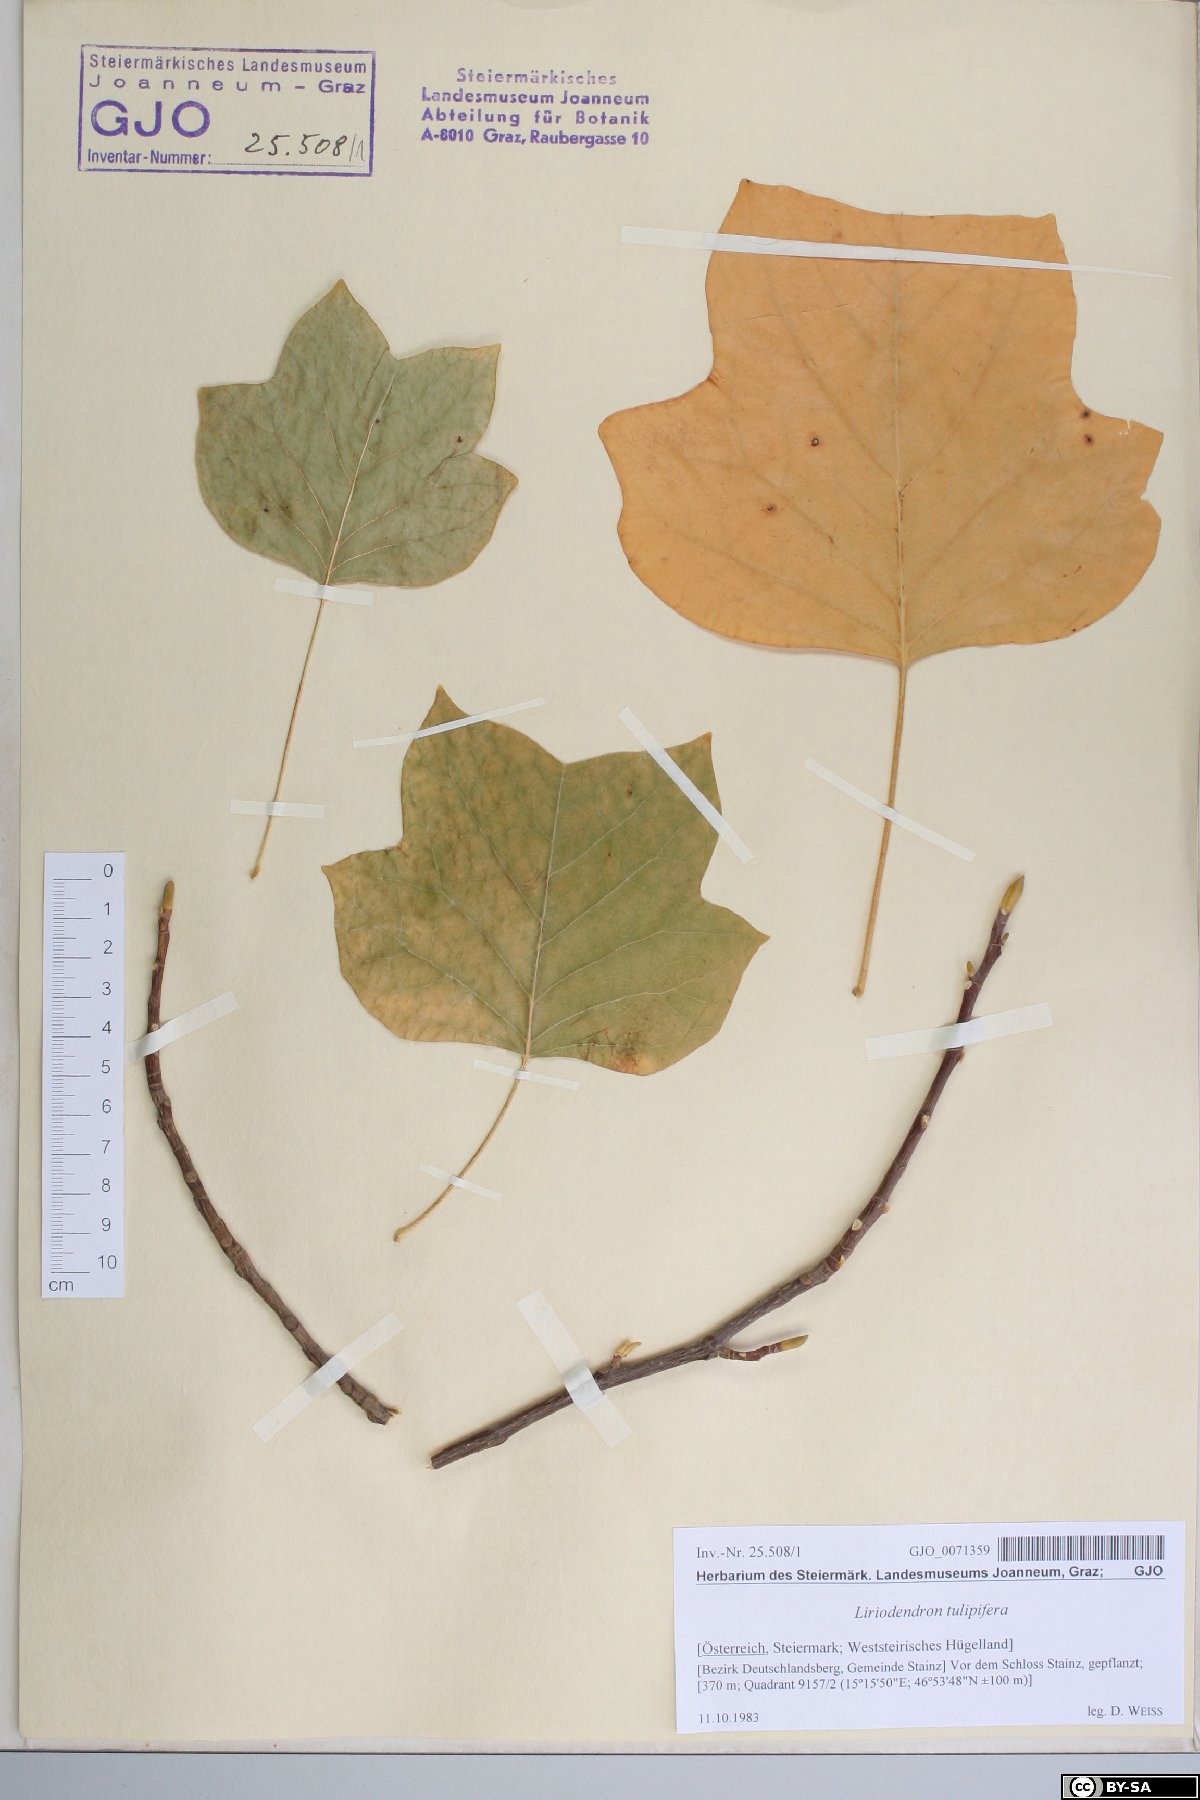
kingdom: Plantae
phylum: Tracheophyta
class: Magnoliopsida
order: Magnoliales
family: Magnoliaceae
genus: Liriodendron
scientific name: Liriodendron tulipifera
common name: Tulip tree
